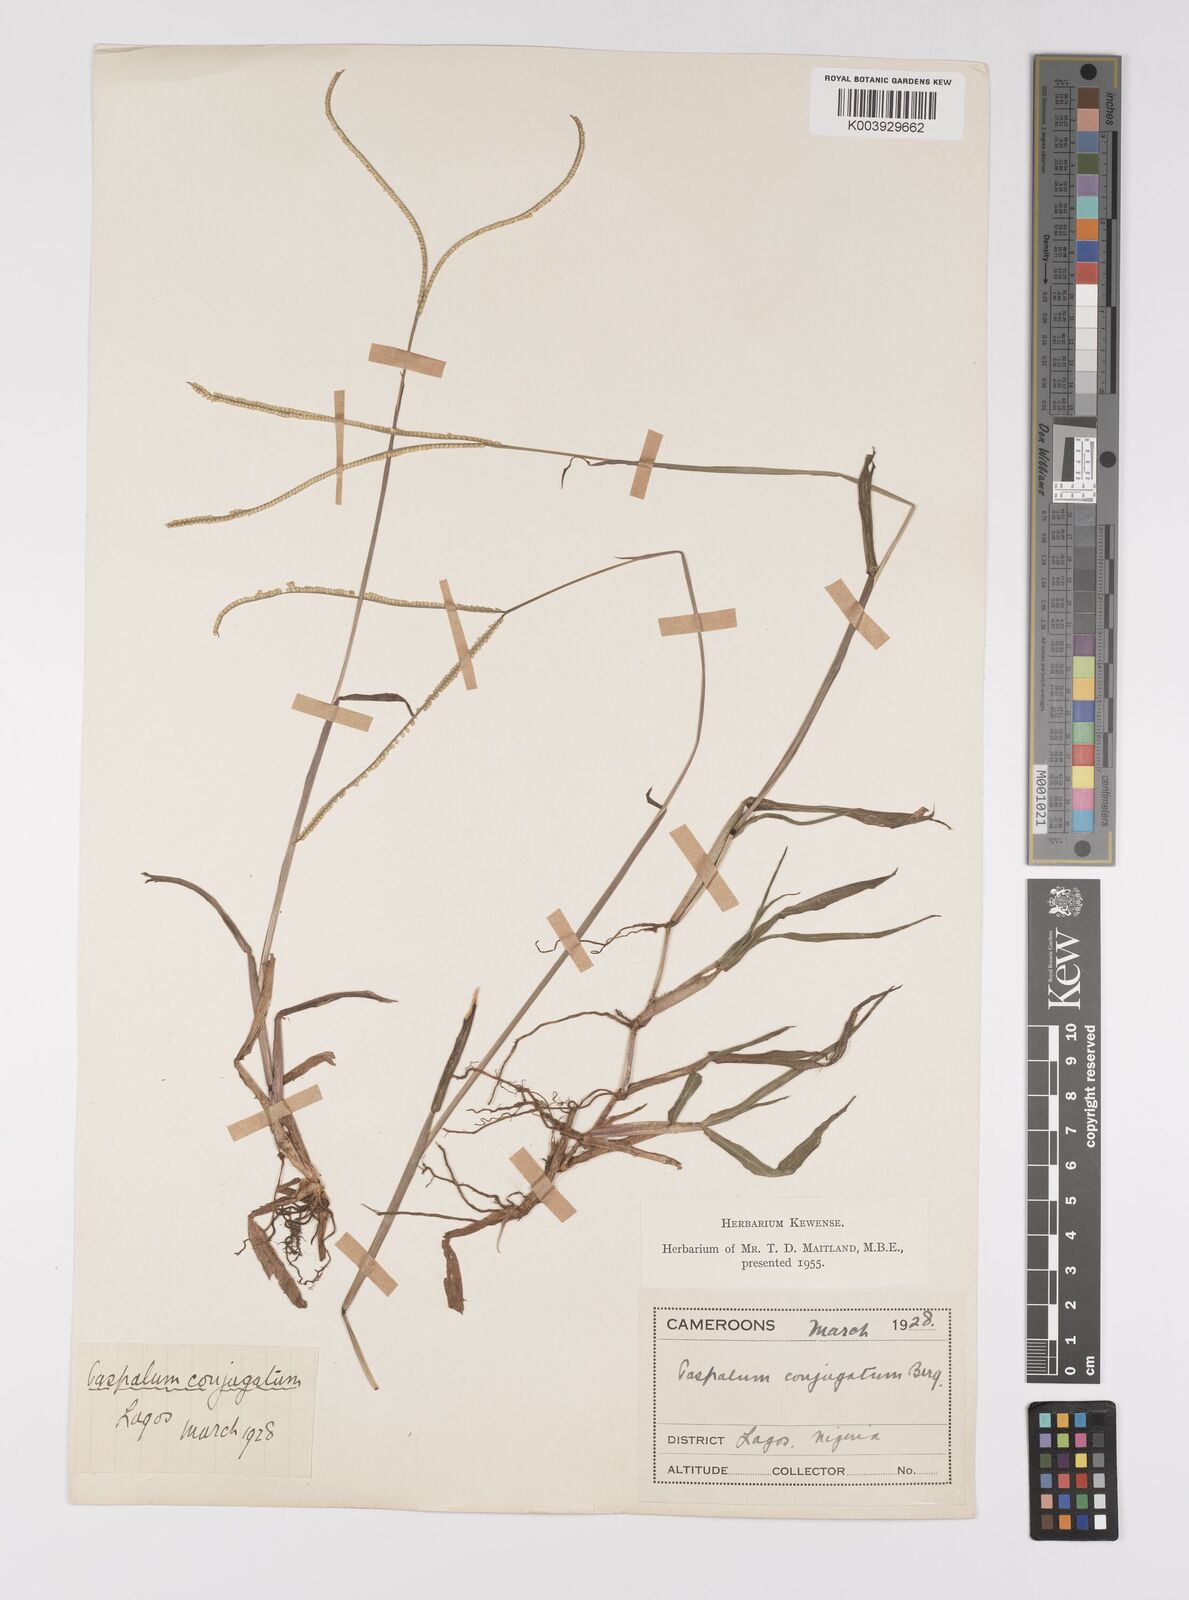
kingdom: Plantae
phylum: Tracheophyta
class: Liliopsida
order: Poales
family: Poaceae
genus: Paspalum
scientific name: Paspalum conjugatum
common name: Hilograss
